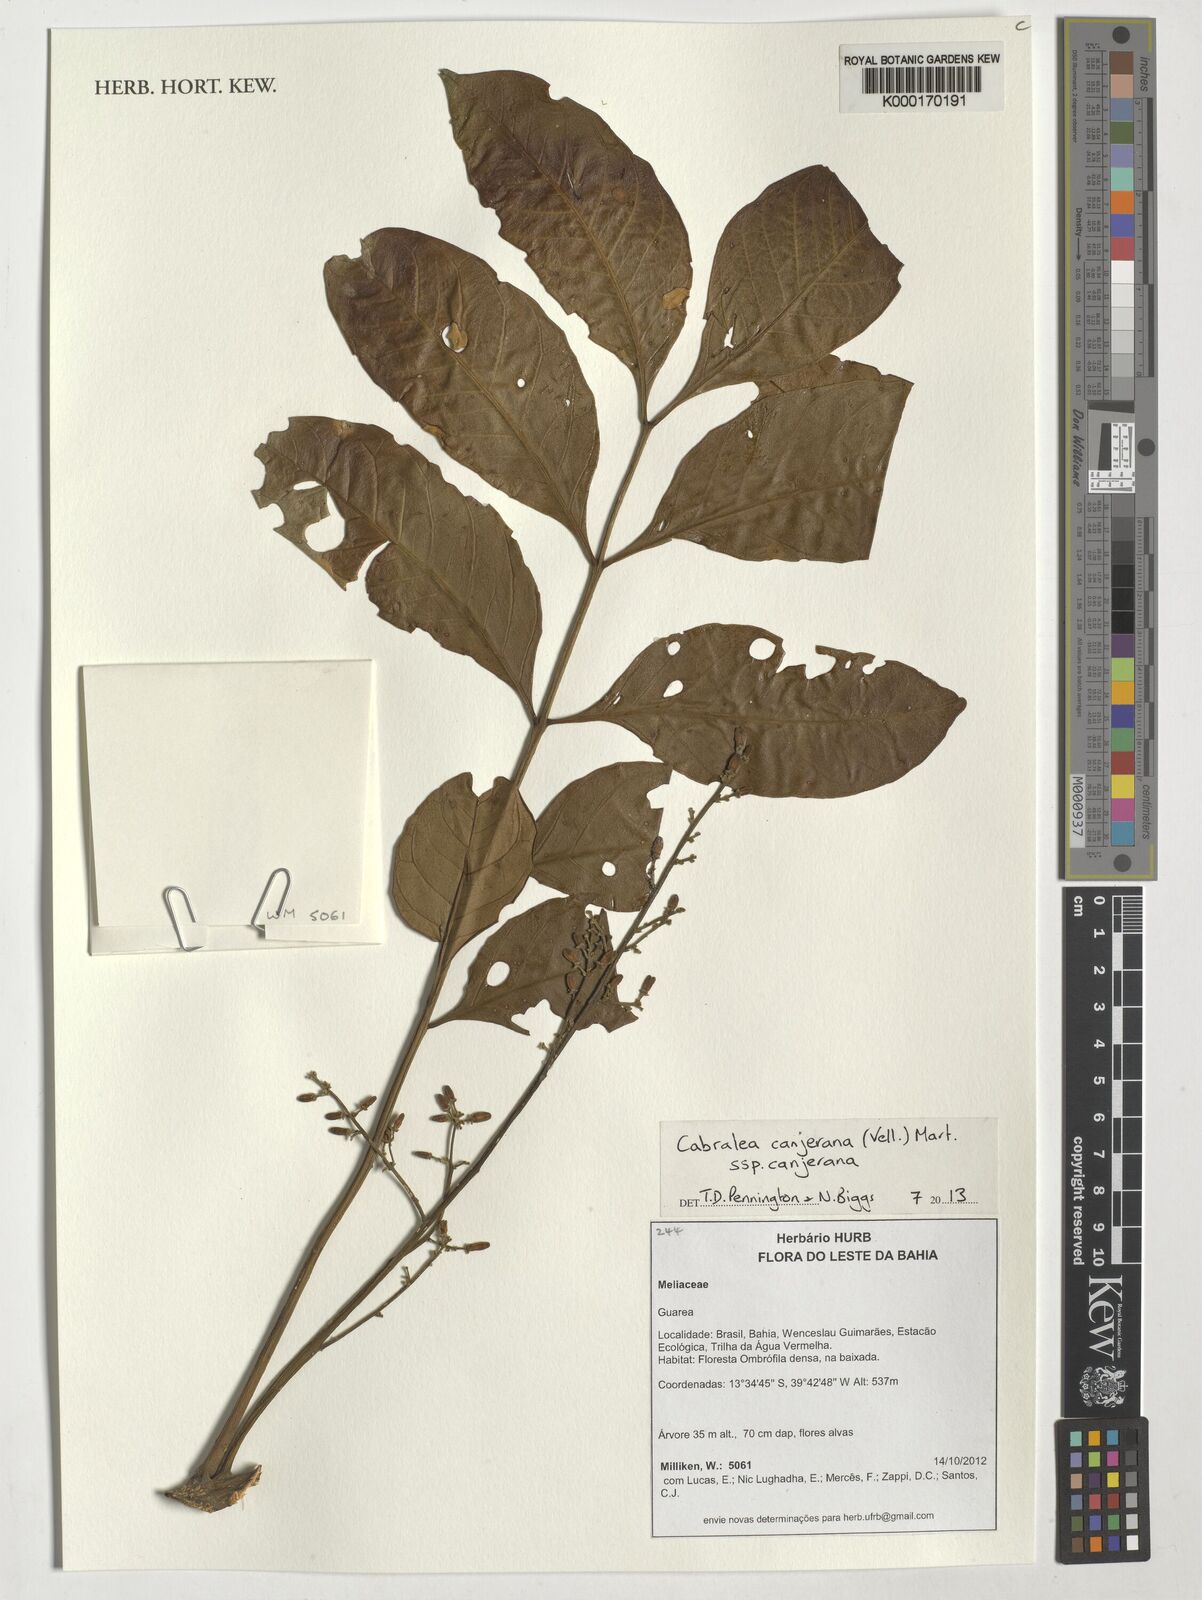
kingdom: Plantae
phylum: Tracheophyta
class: Magnoliopsida
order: Sapindales
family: Meliaceae
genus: Cabralea
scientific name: Cabralea canjerana
